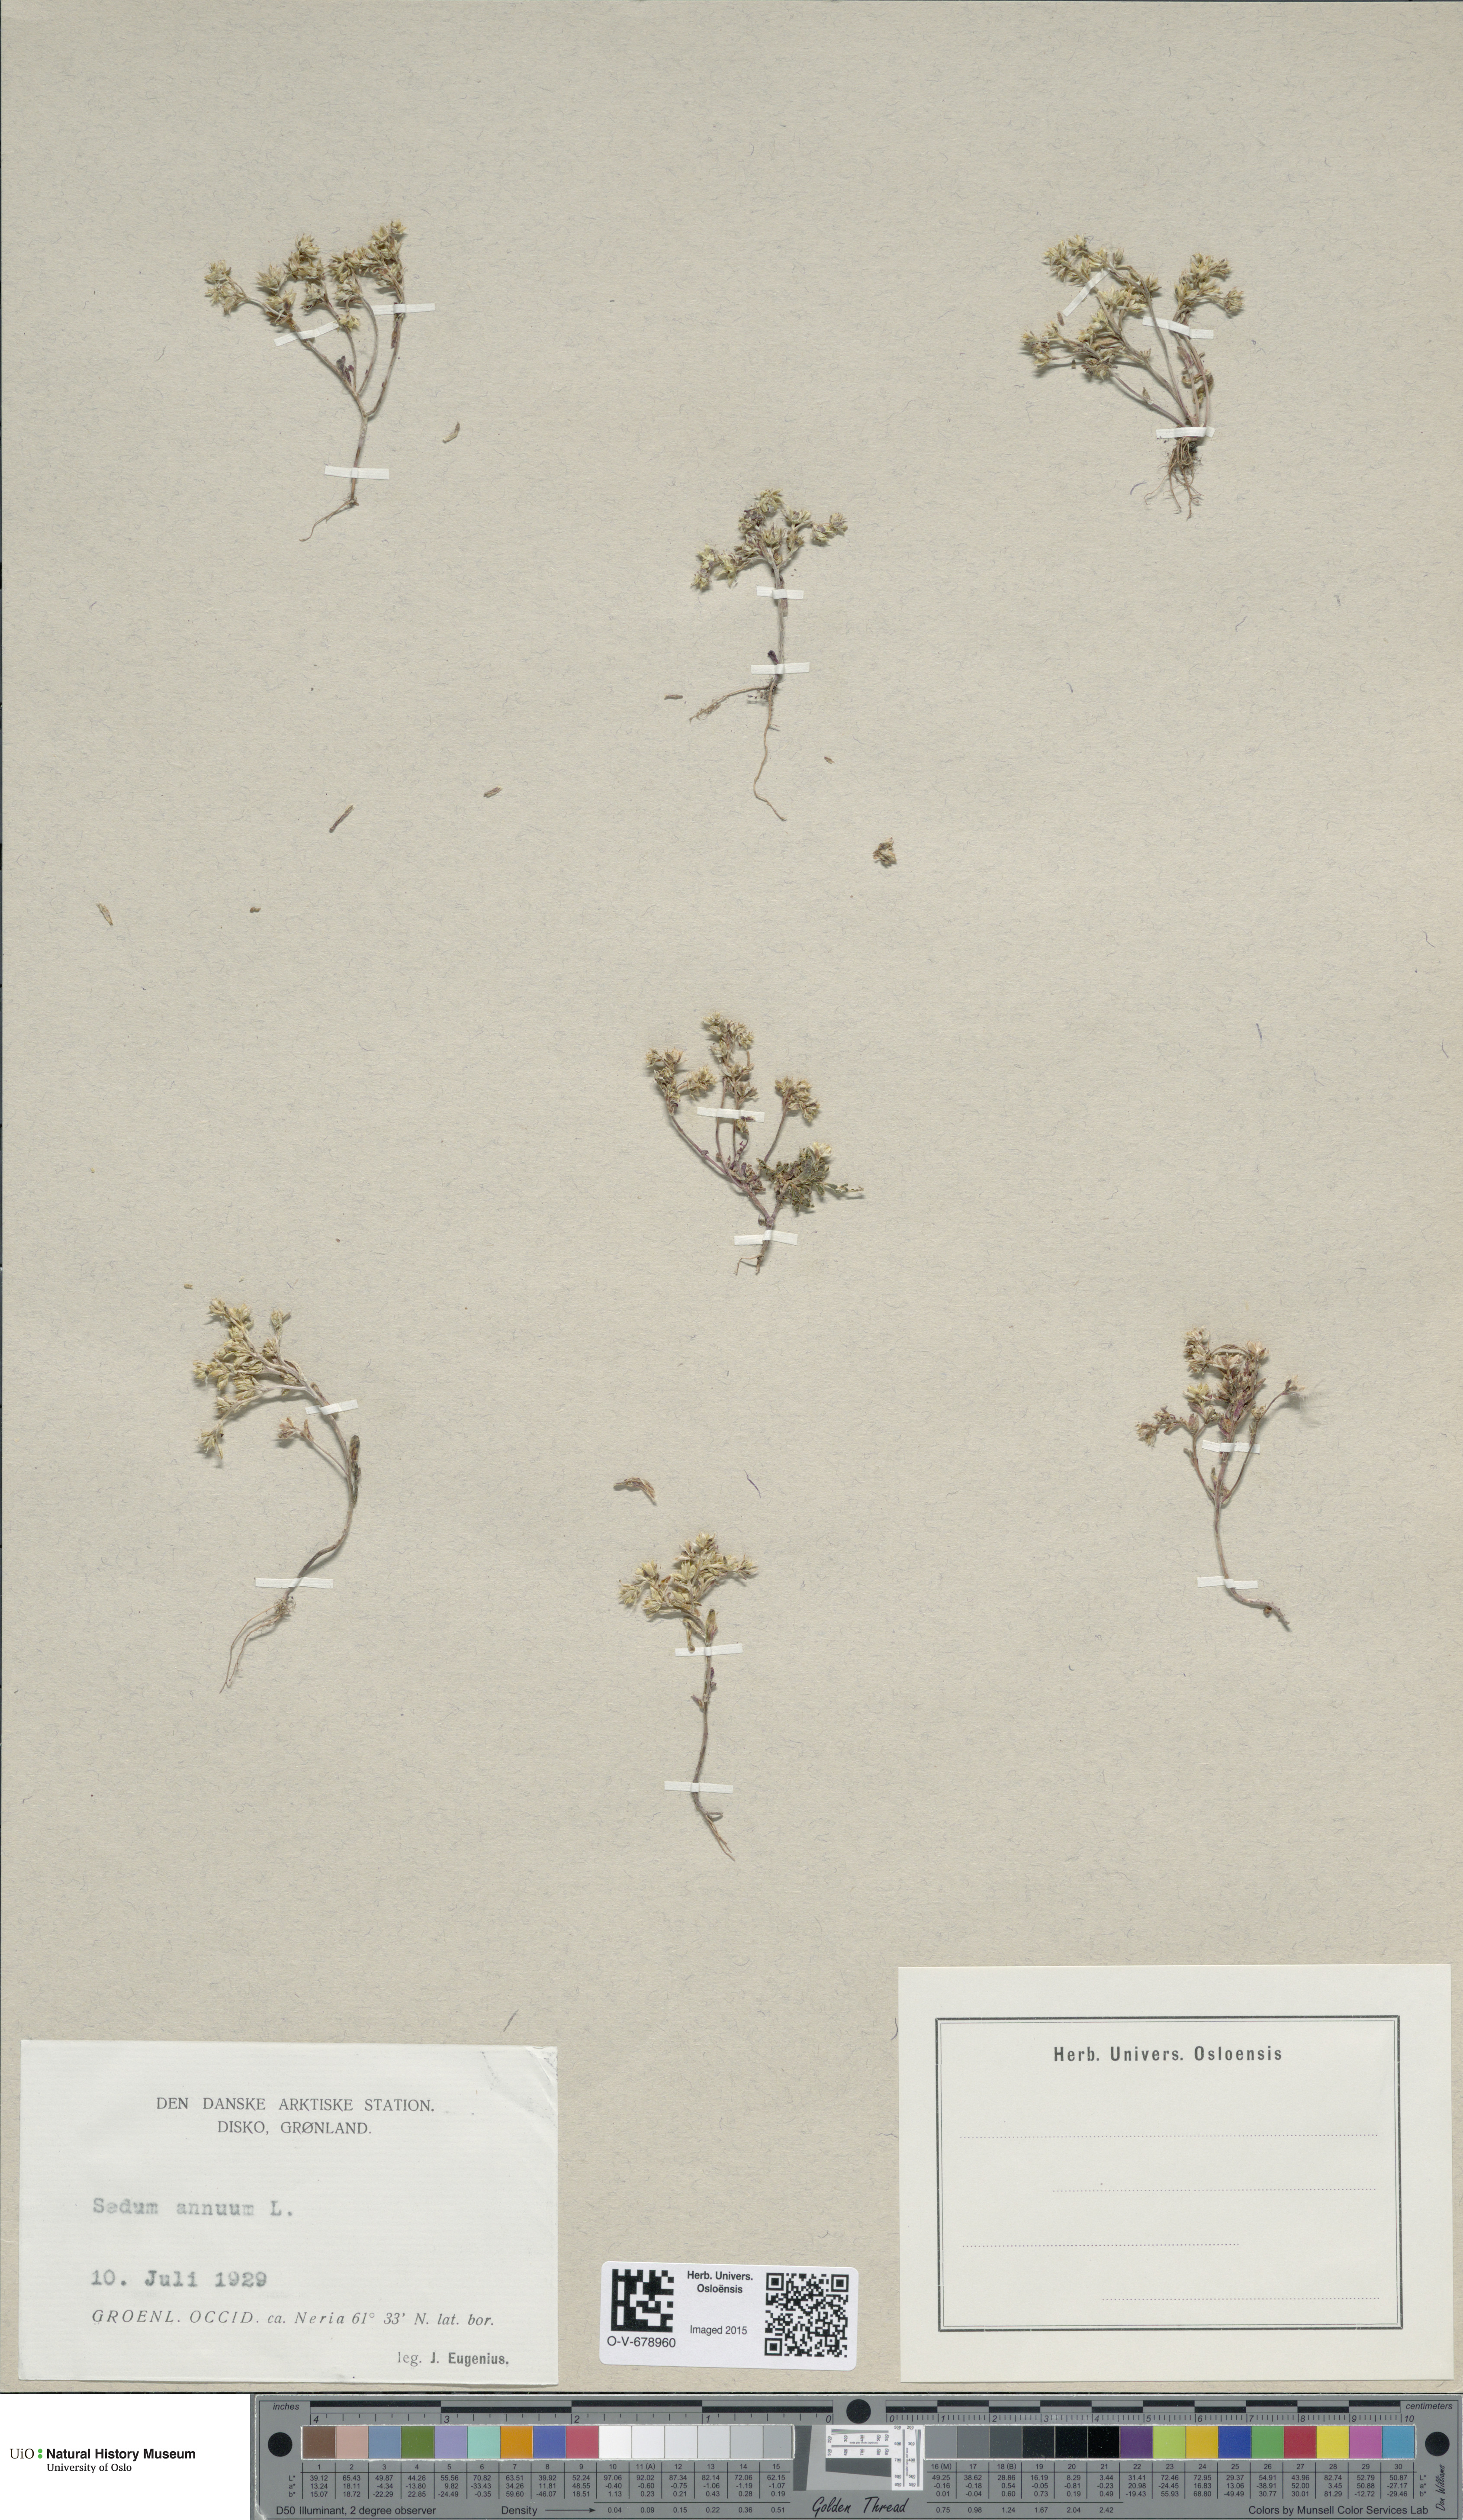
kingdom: Plantae
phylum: Tracheophyta
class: Magnoliopsida
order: Saxifragales
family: Crassulaceae
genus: Sedum
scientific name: Sedum annuum
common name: Annual stonecrop
